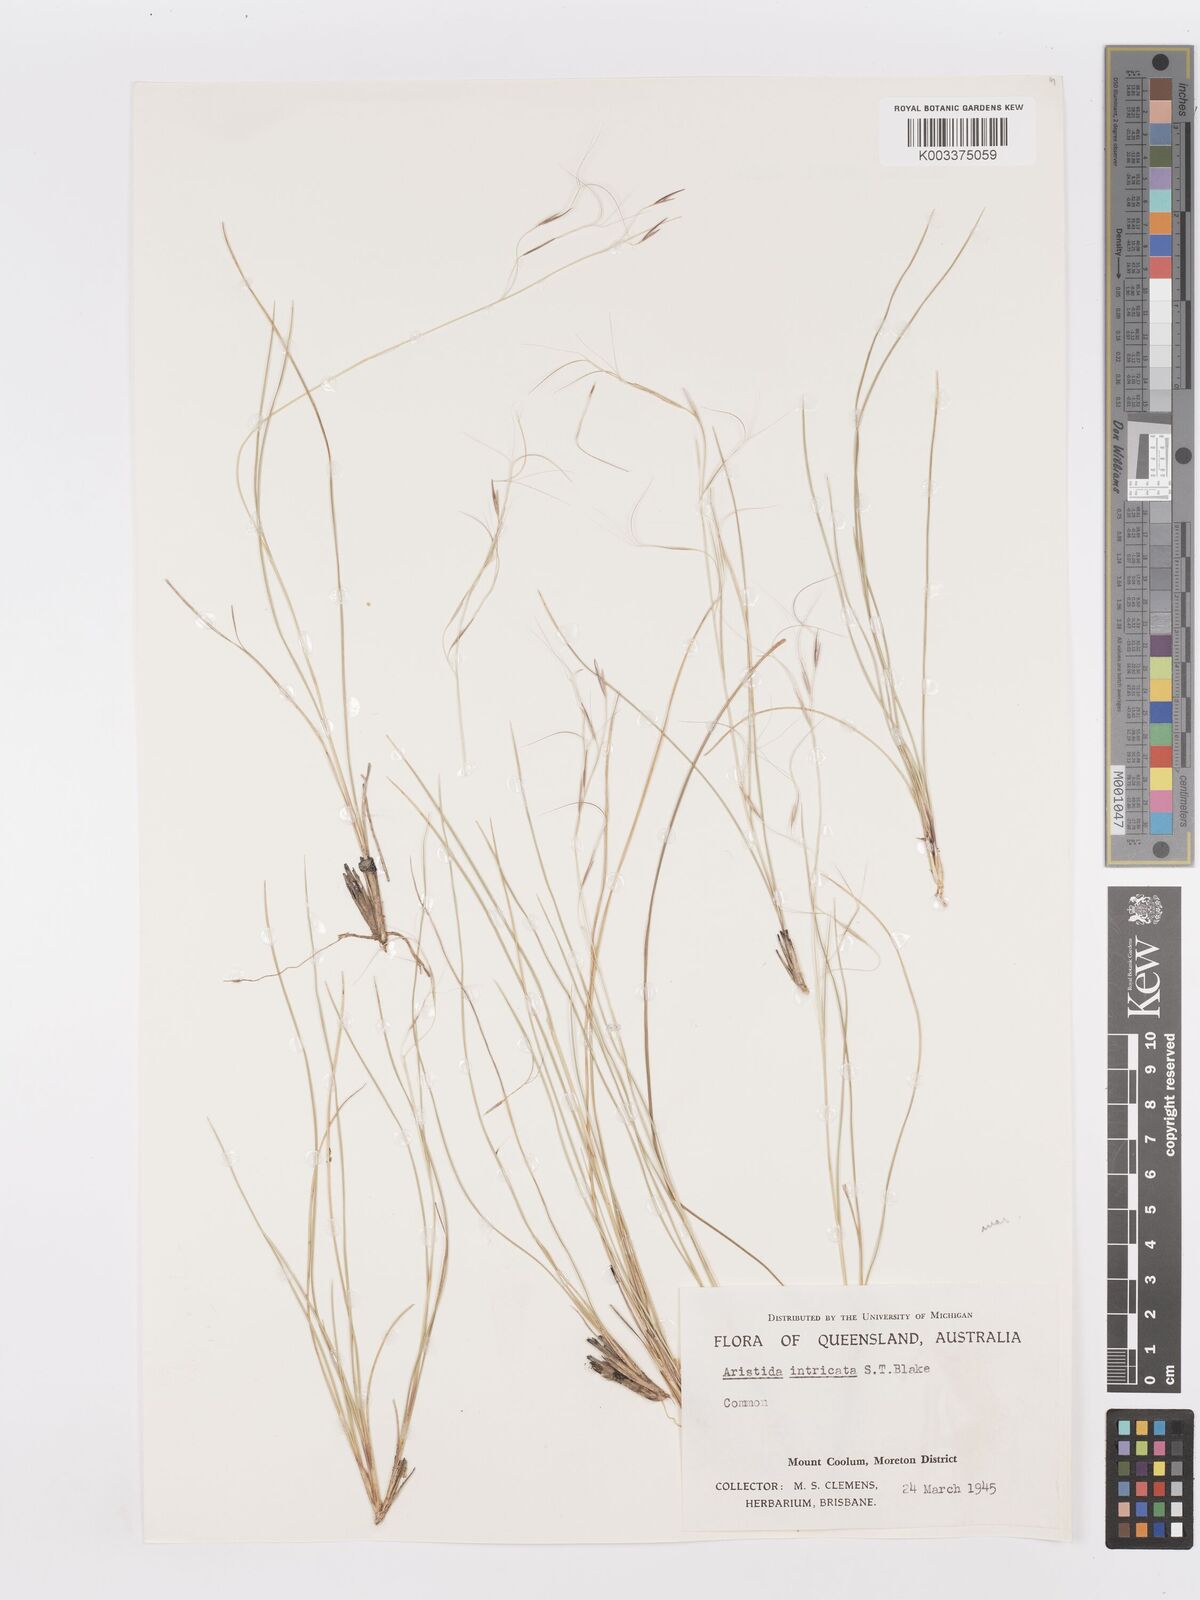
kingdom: Plantae
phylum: Tracheophyta
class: Liliopsida
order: Poales
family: Poaceae
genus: Aristida
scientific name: Aristida warburgii
